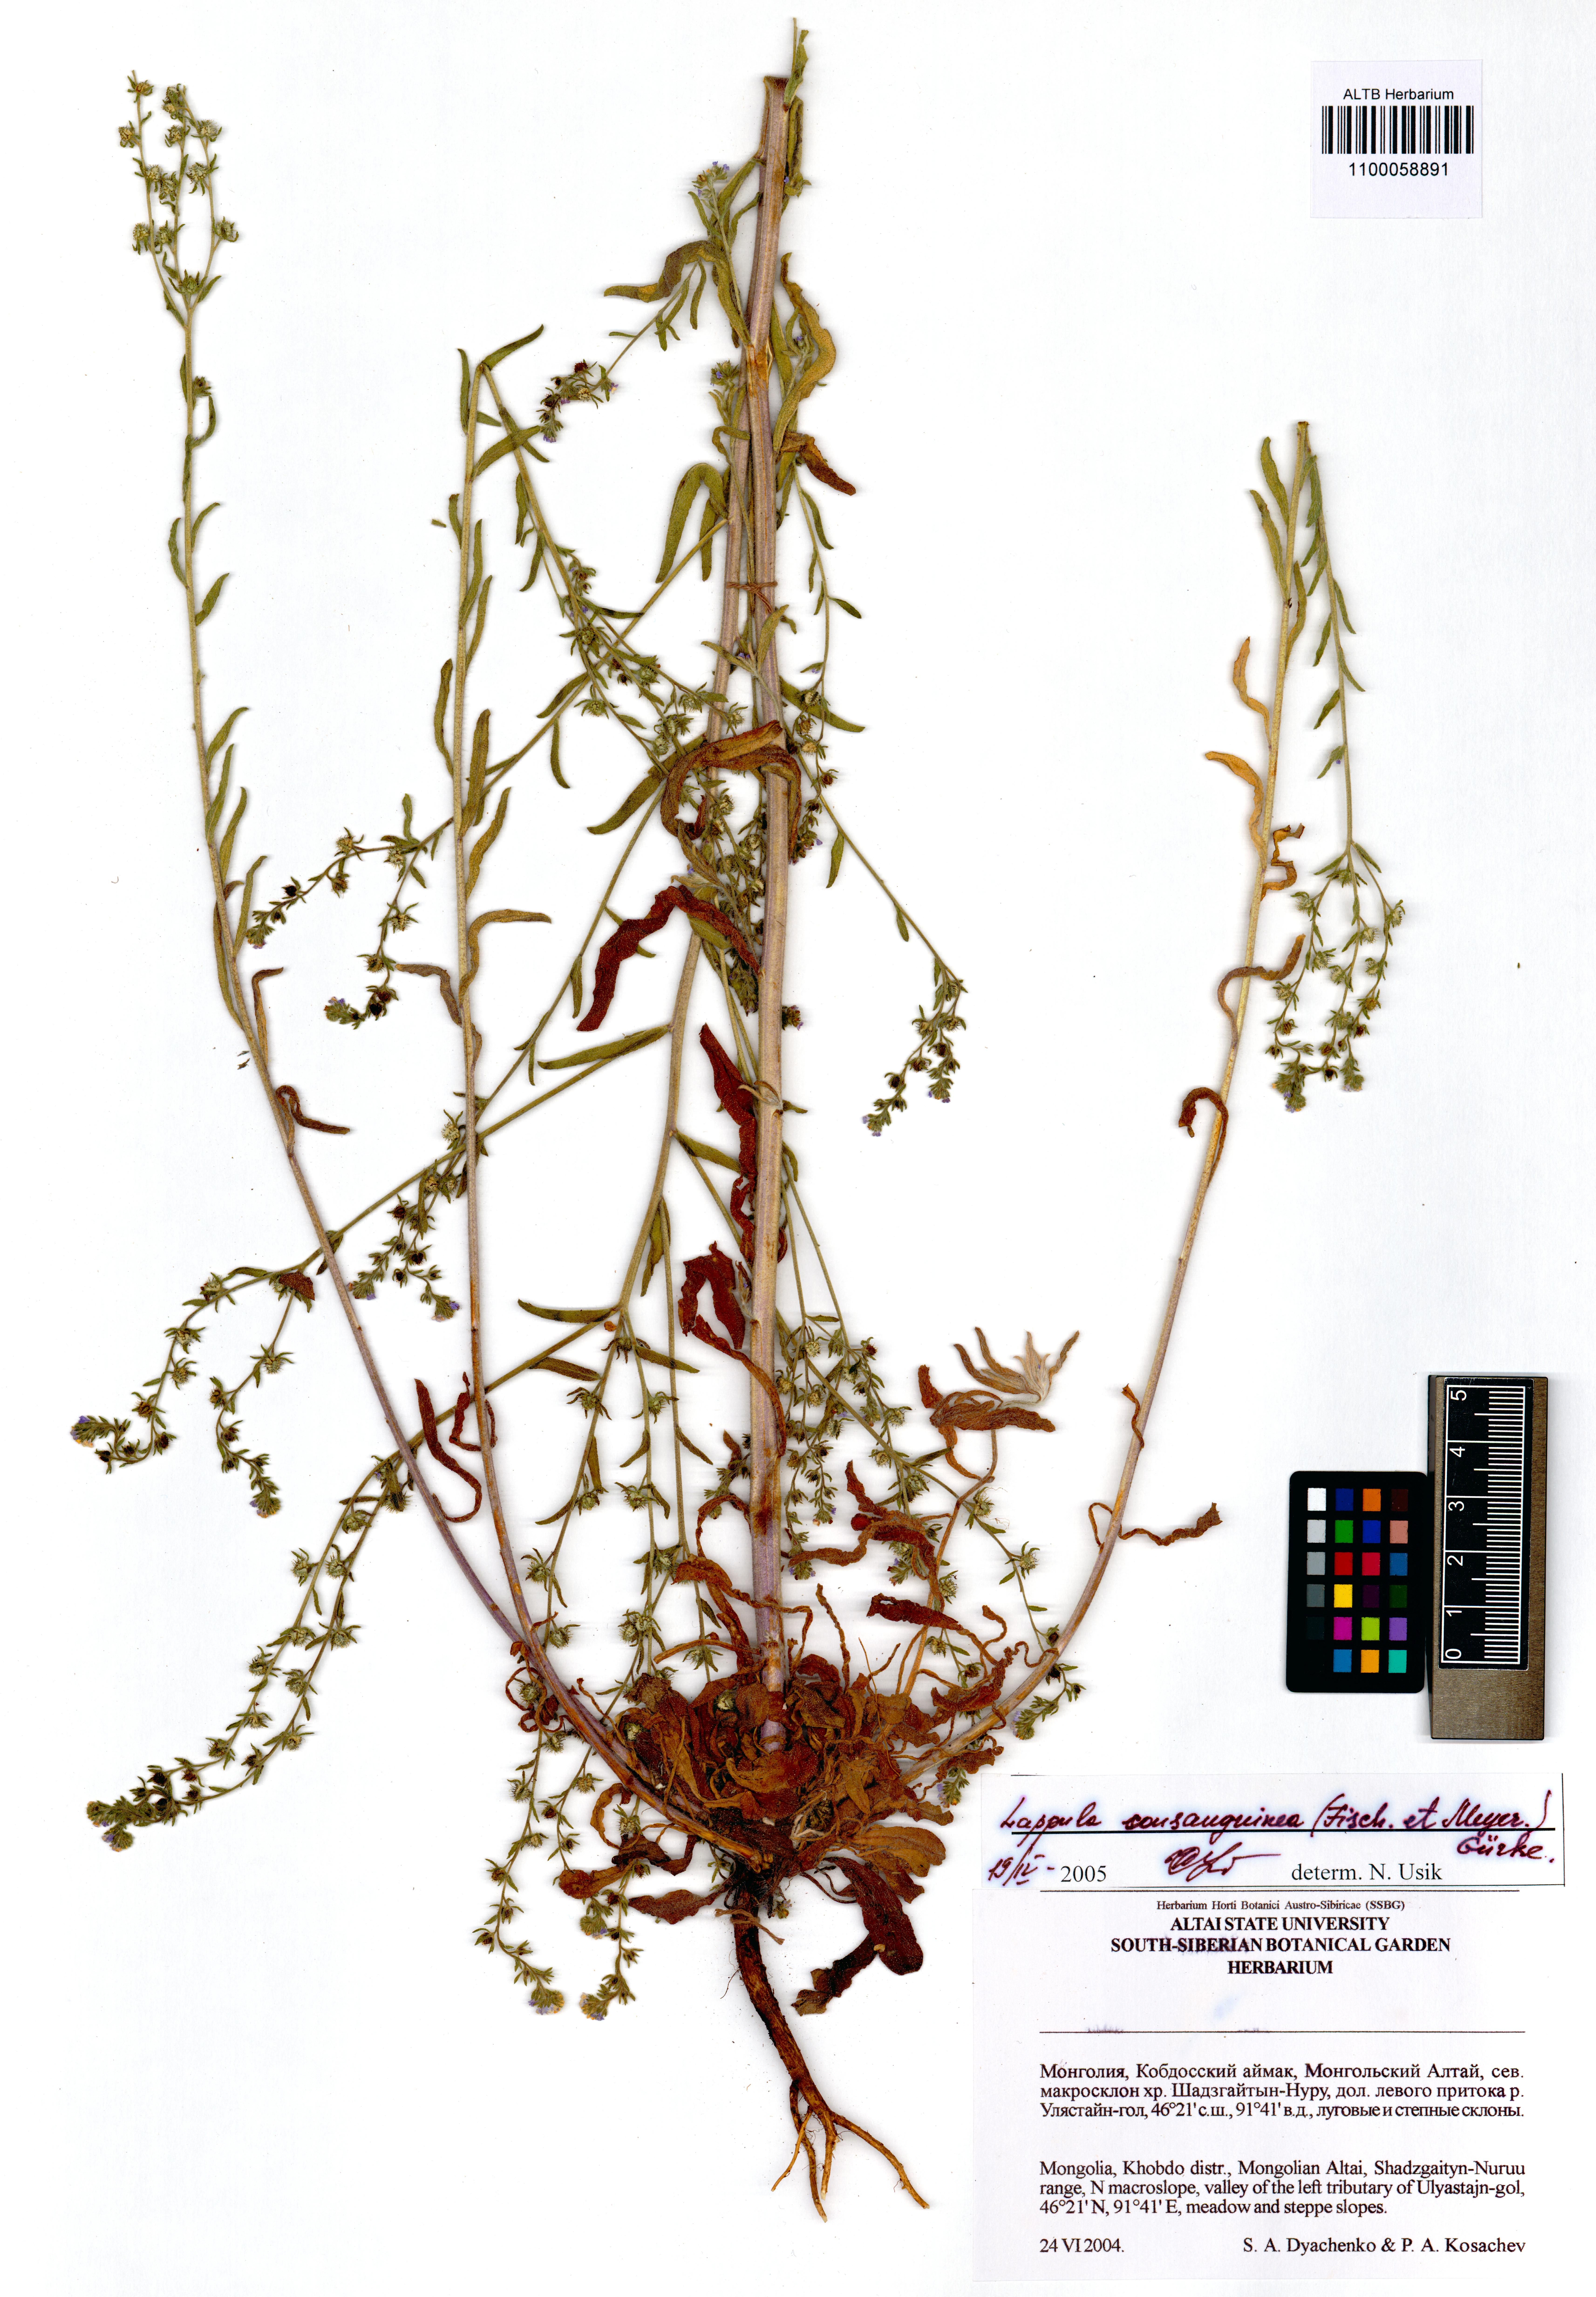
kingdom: Plantae
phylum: Tracheophyta
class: Magnoliopsida
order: Boraginales
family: Boraginaceae
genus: Lappula
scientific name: Lappula squarrosa
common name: European stickseed
